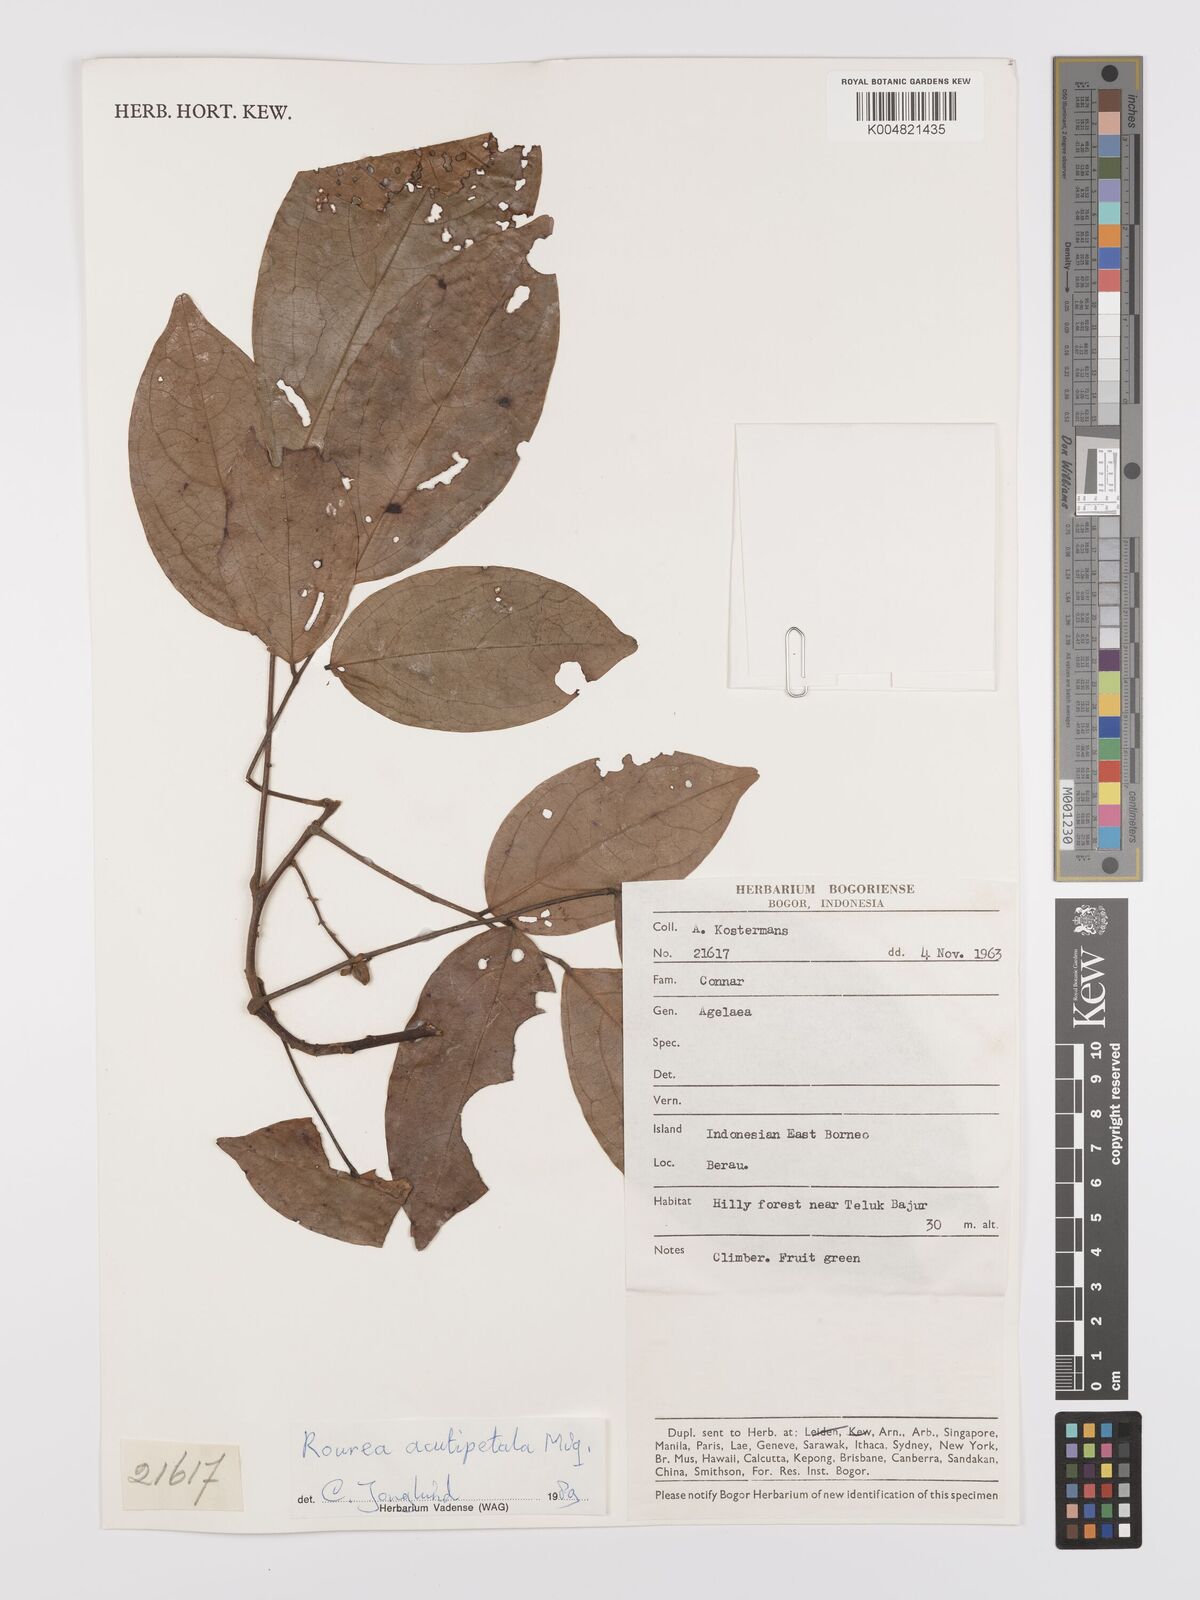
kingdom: Plantae
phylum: Tracheophyta
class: Magnoliopsida
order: Oxalidales
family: Connaraceae
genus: Rourea
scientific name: Rourea acutipetala
